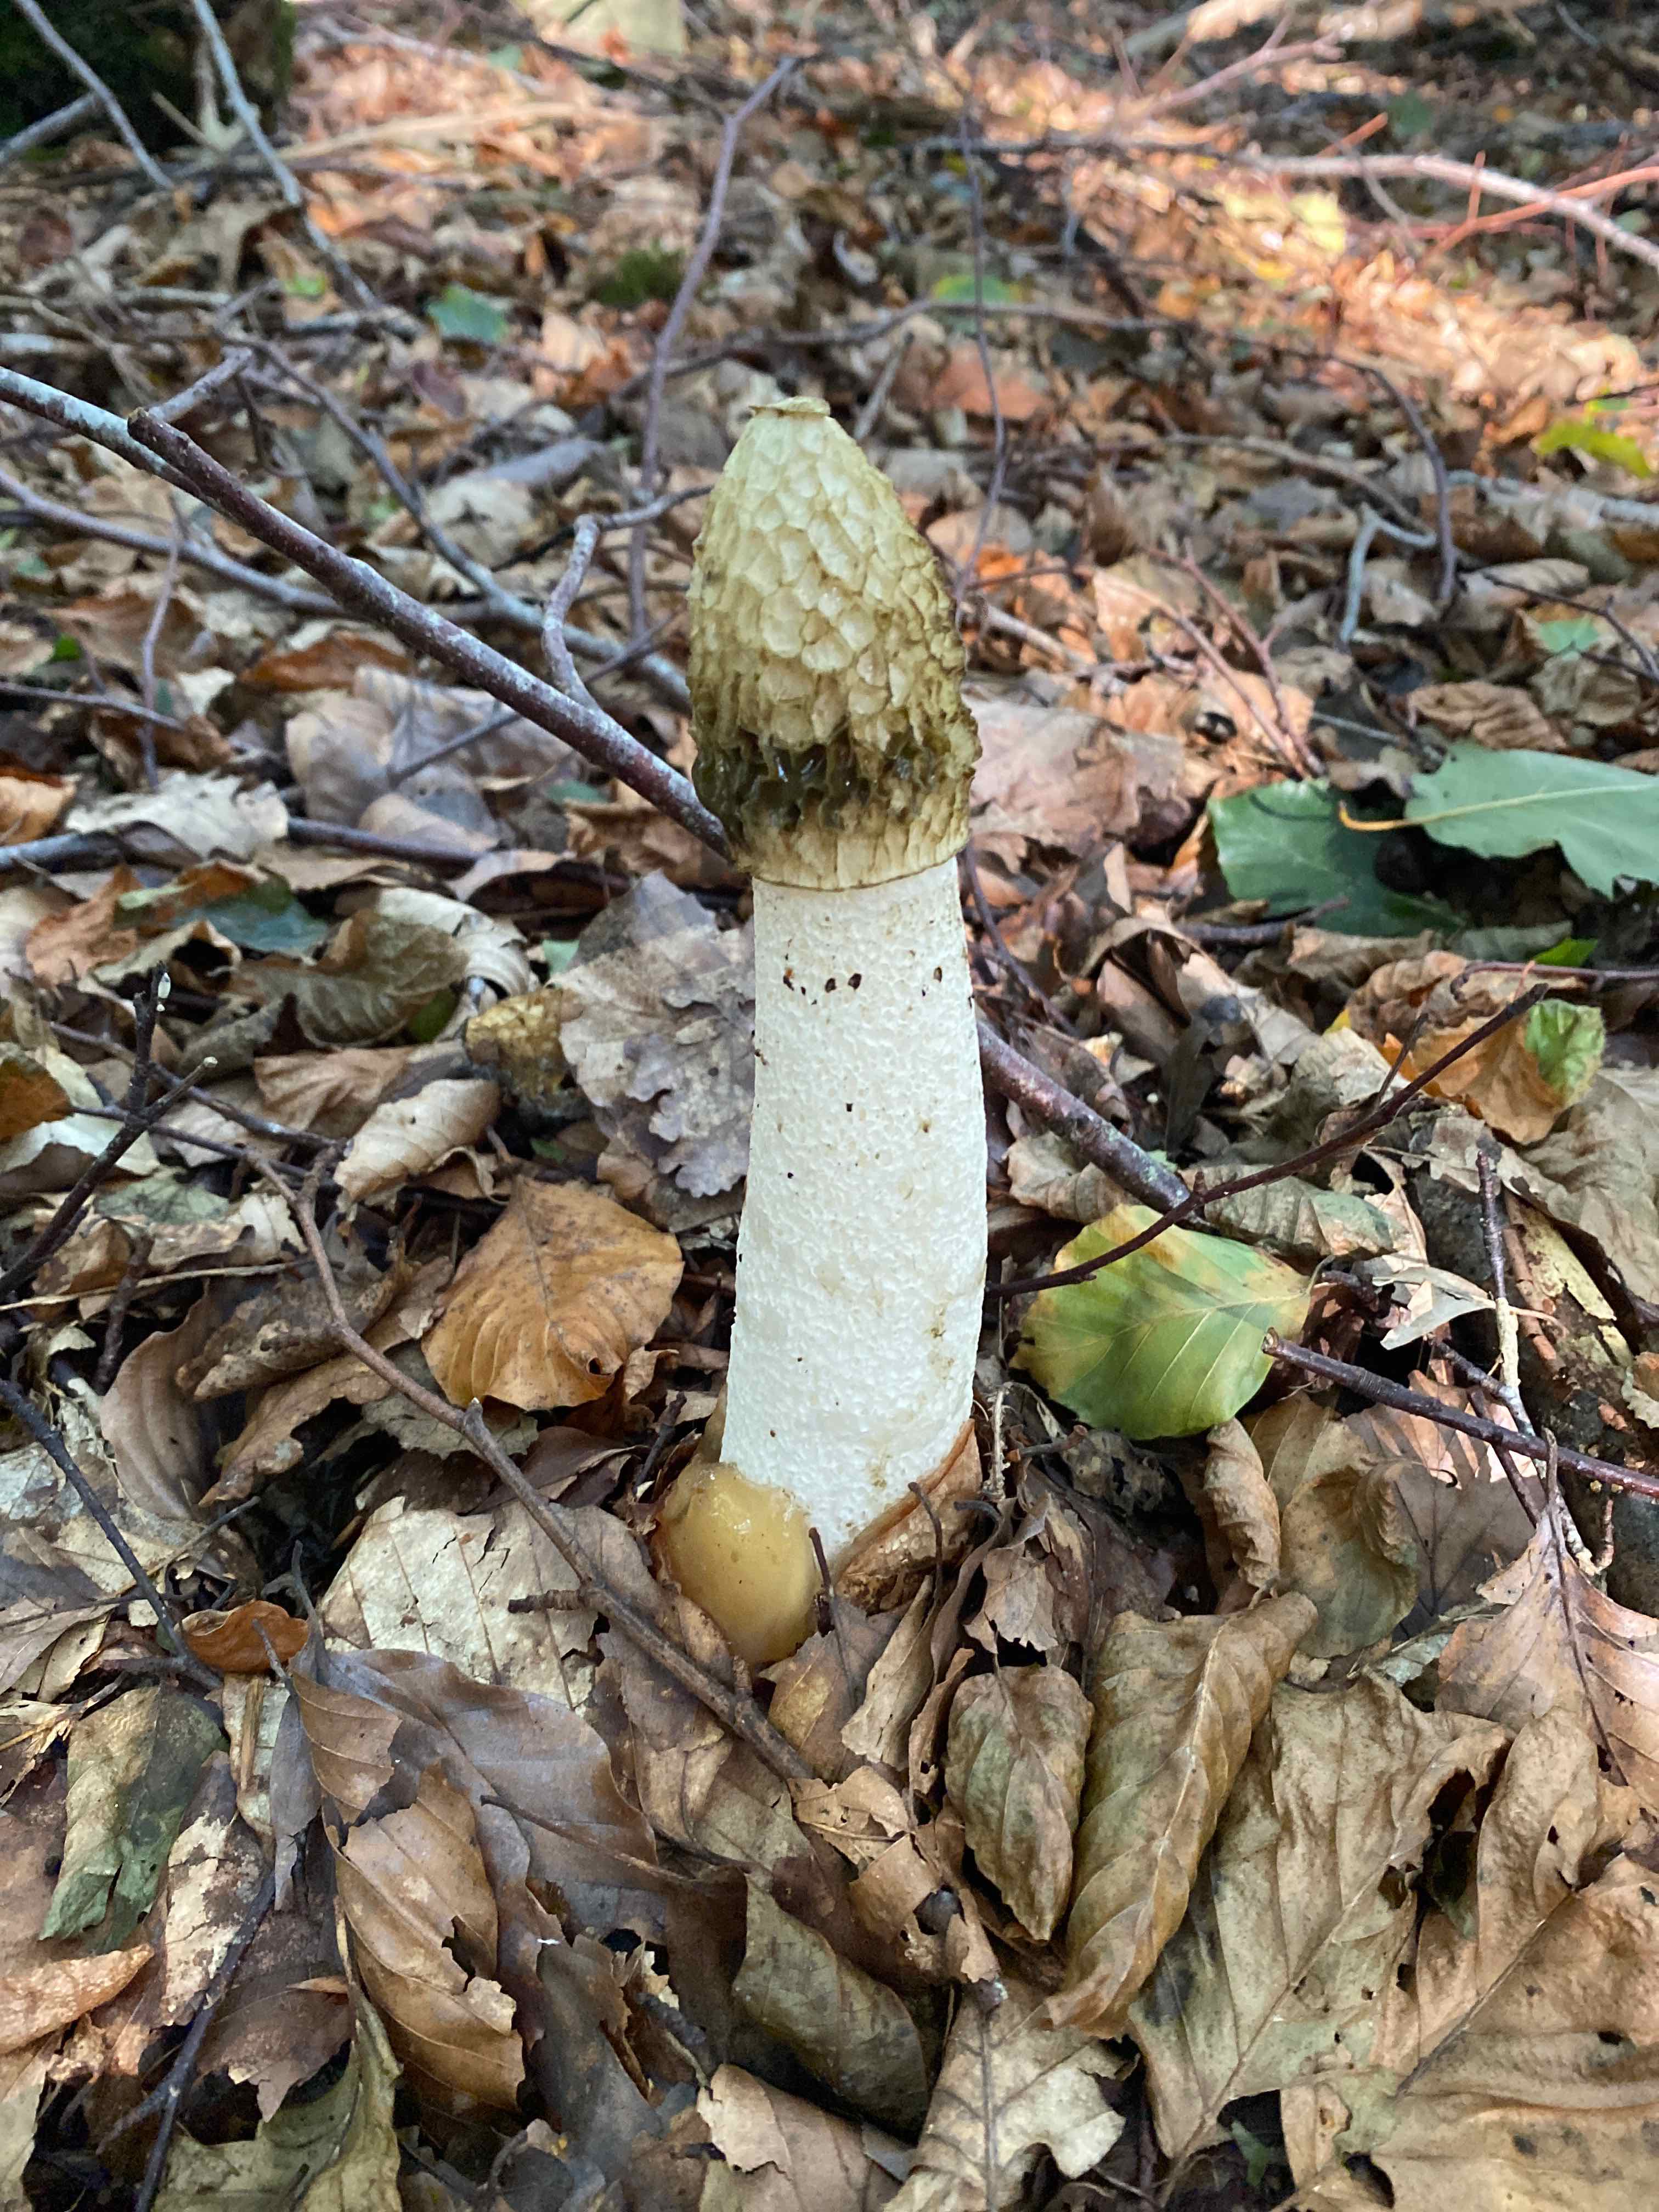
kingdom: Fungi
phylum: Basidiomycota
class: Agaricomycetes
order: Phallales
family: Phallaceae
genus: Phallus
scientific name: Phallus impudicus
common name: almindelig stinksvamp
